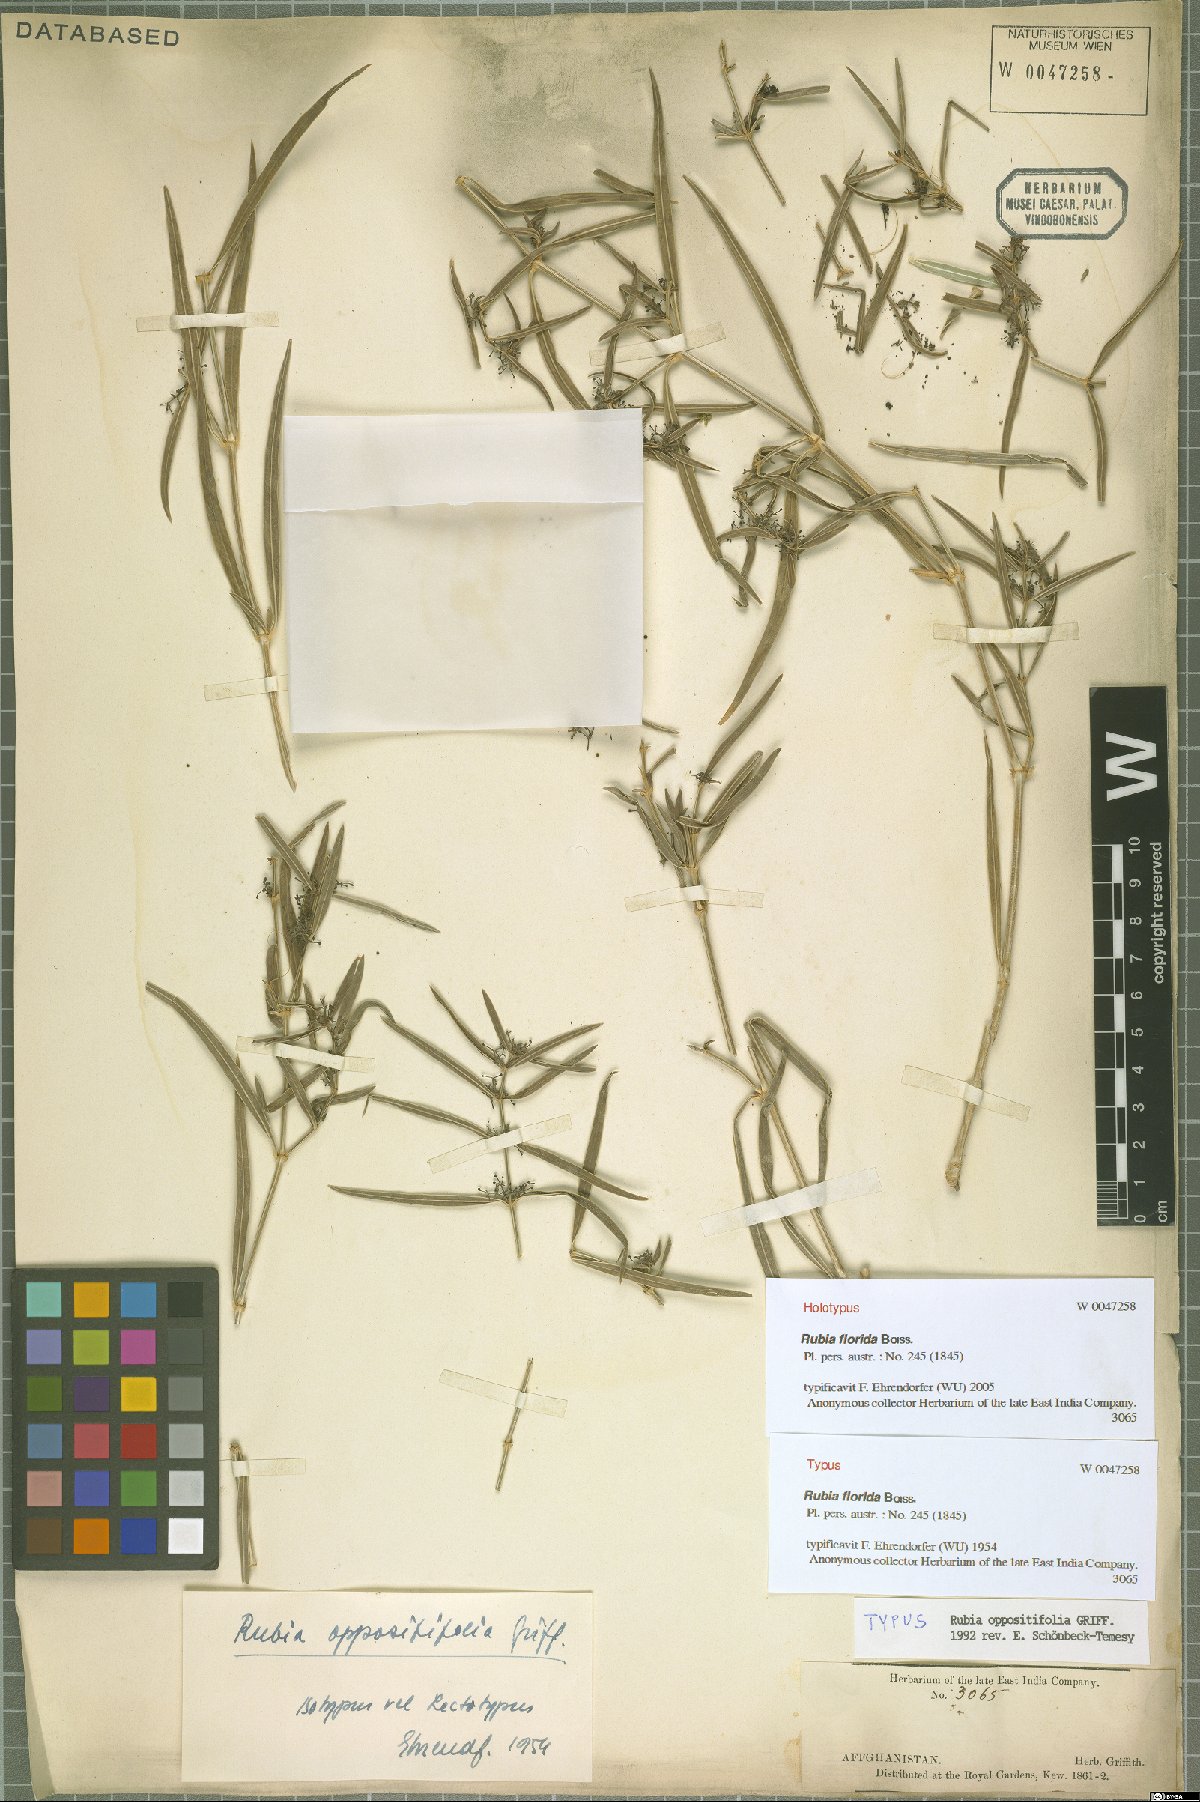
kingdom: Plantae
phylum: Tracheophyta
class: Magnoliopsida
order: Gentianales
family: Rubiaceae
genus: Rubia
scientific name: Rubia oppositifolia
